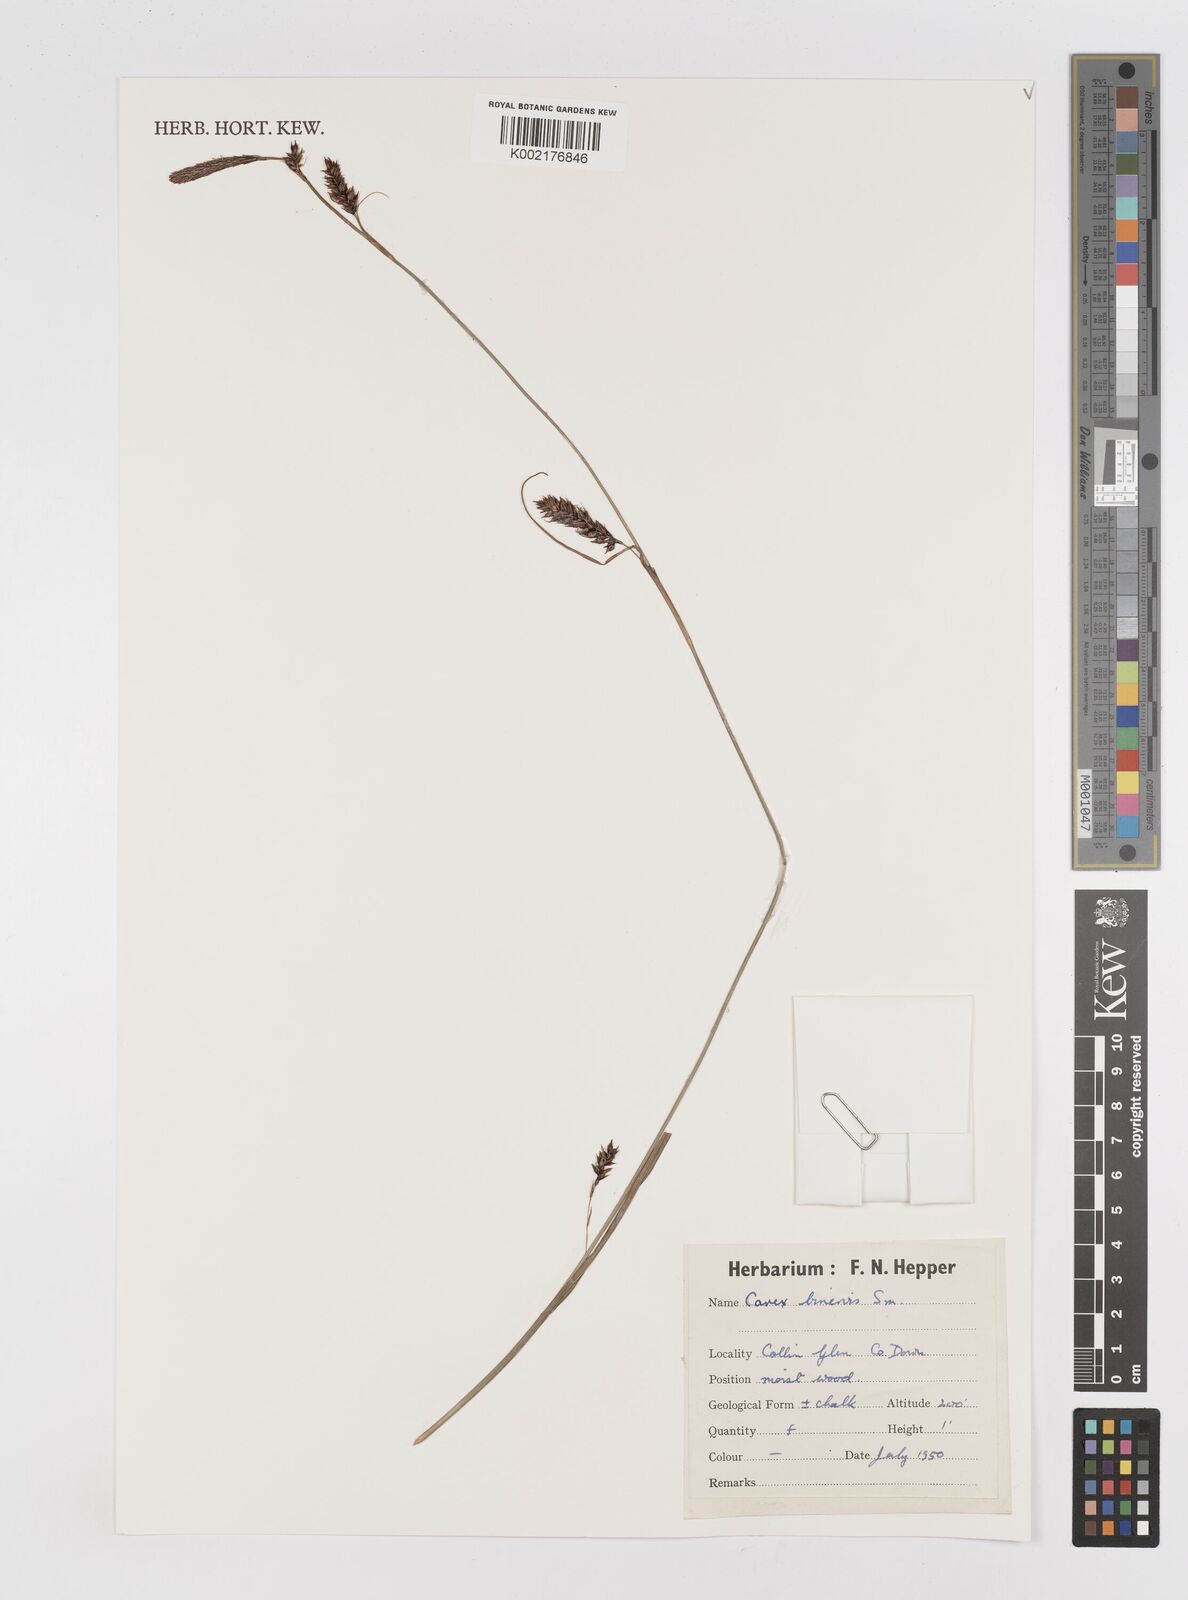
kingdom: Plantae
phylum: Tracheophyta
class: Liliopsida
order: Poales
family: Cyperaceae
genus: Carex
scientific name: Carex binervis
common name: Green-ribbed sedge
